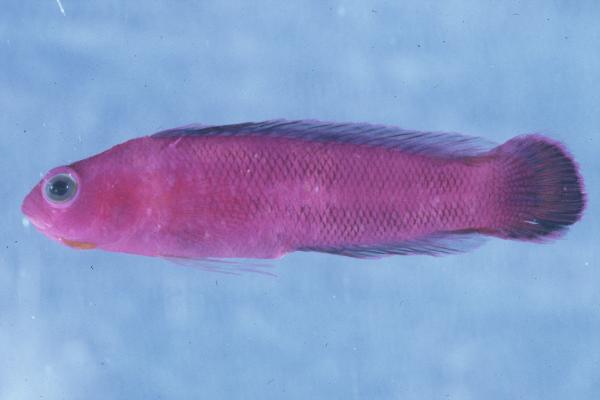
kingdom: Animalia
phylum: Chordata
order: Perciformes
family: Pseudochromidae
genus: Chlidichthys
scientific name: Chlidichthys johnvoelckeri
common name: Cerise dottyback
